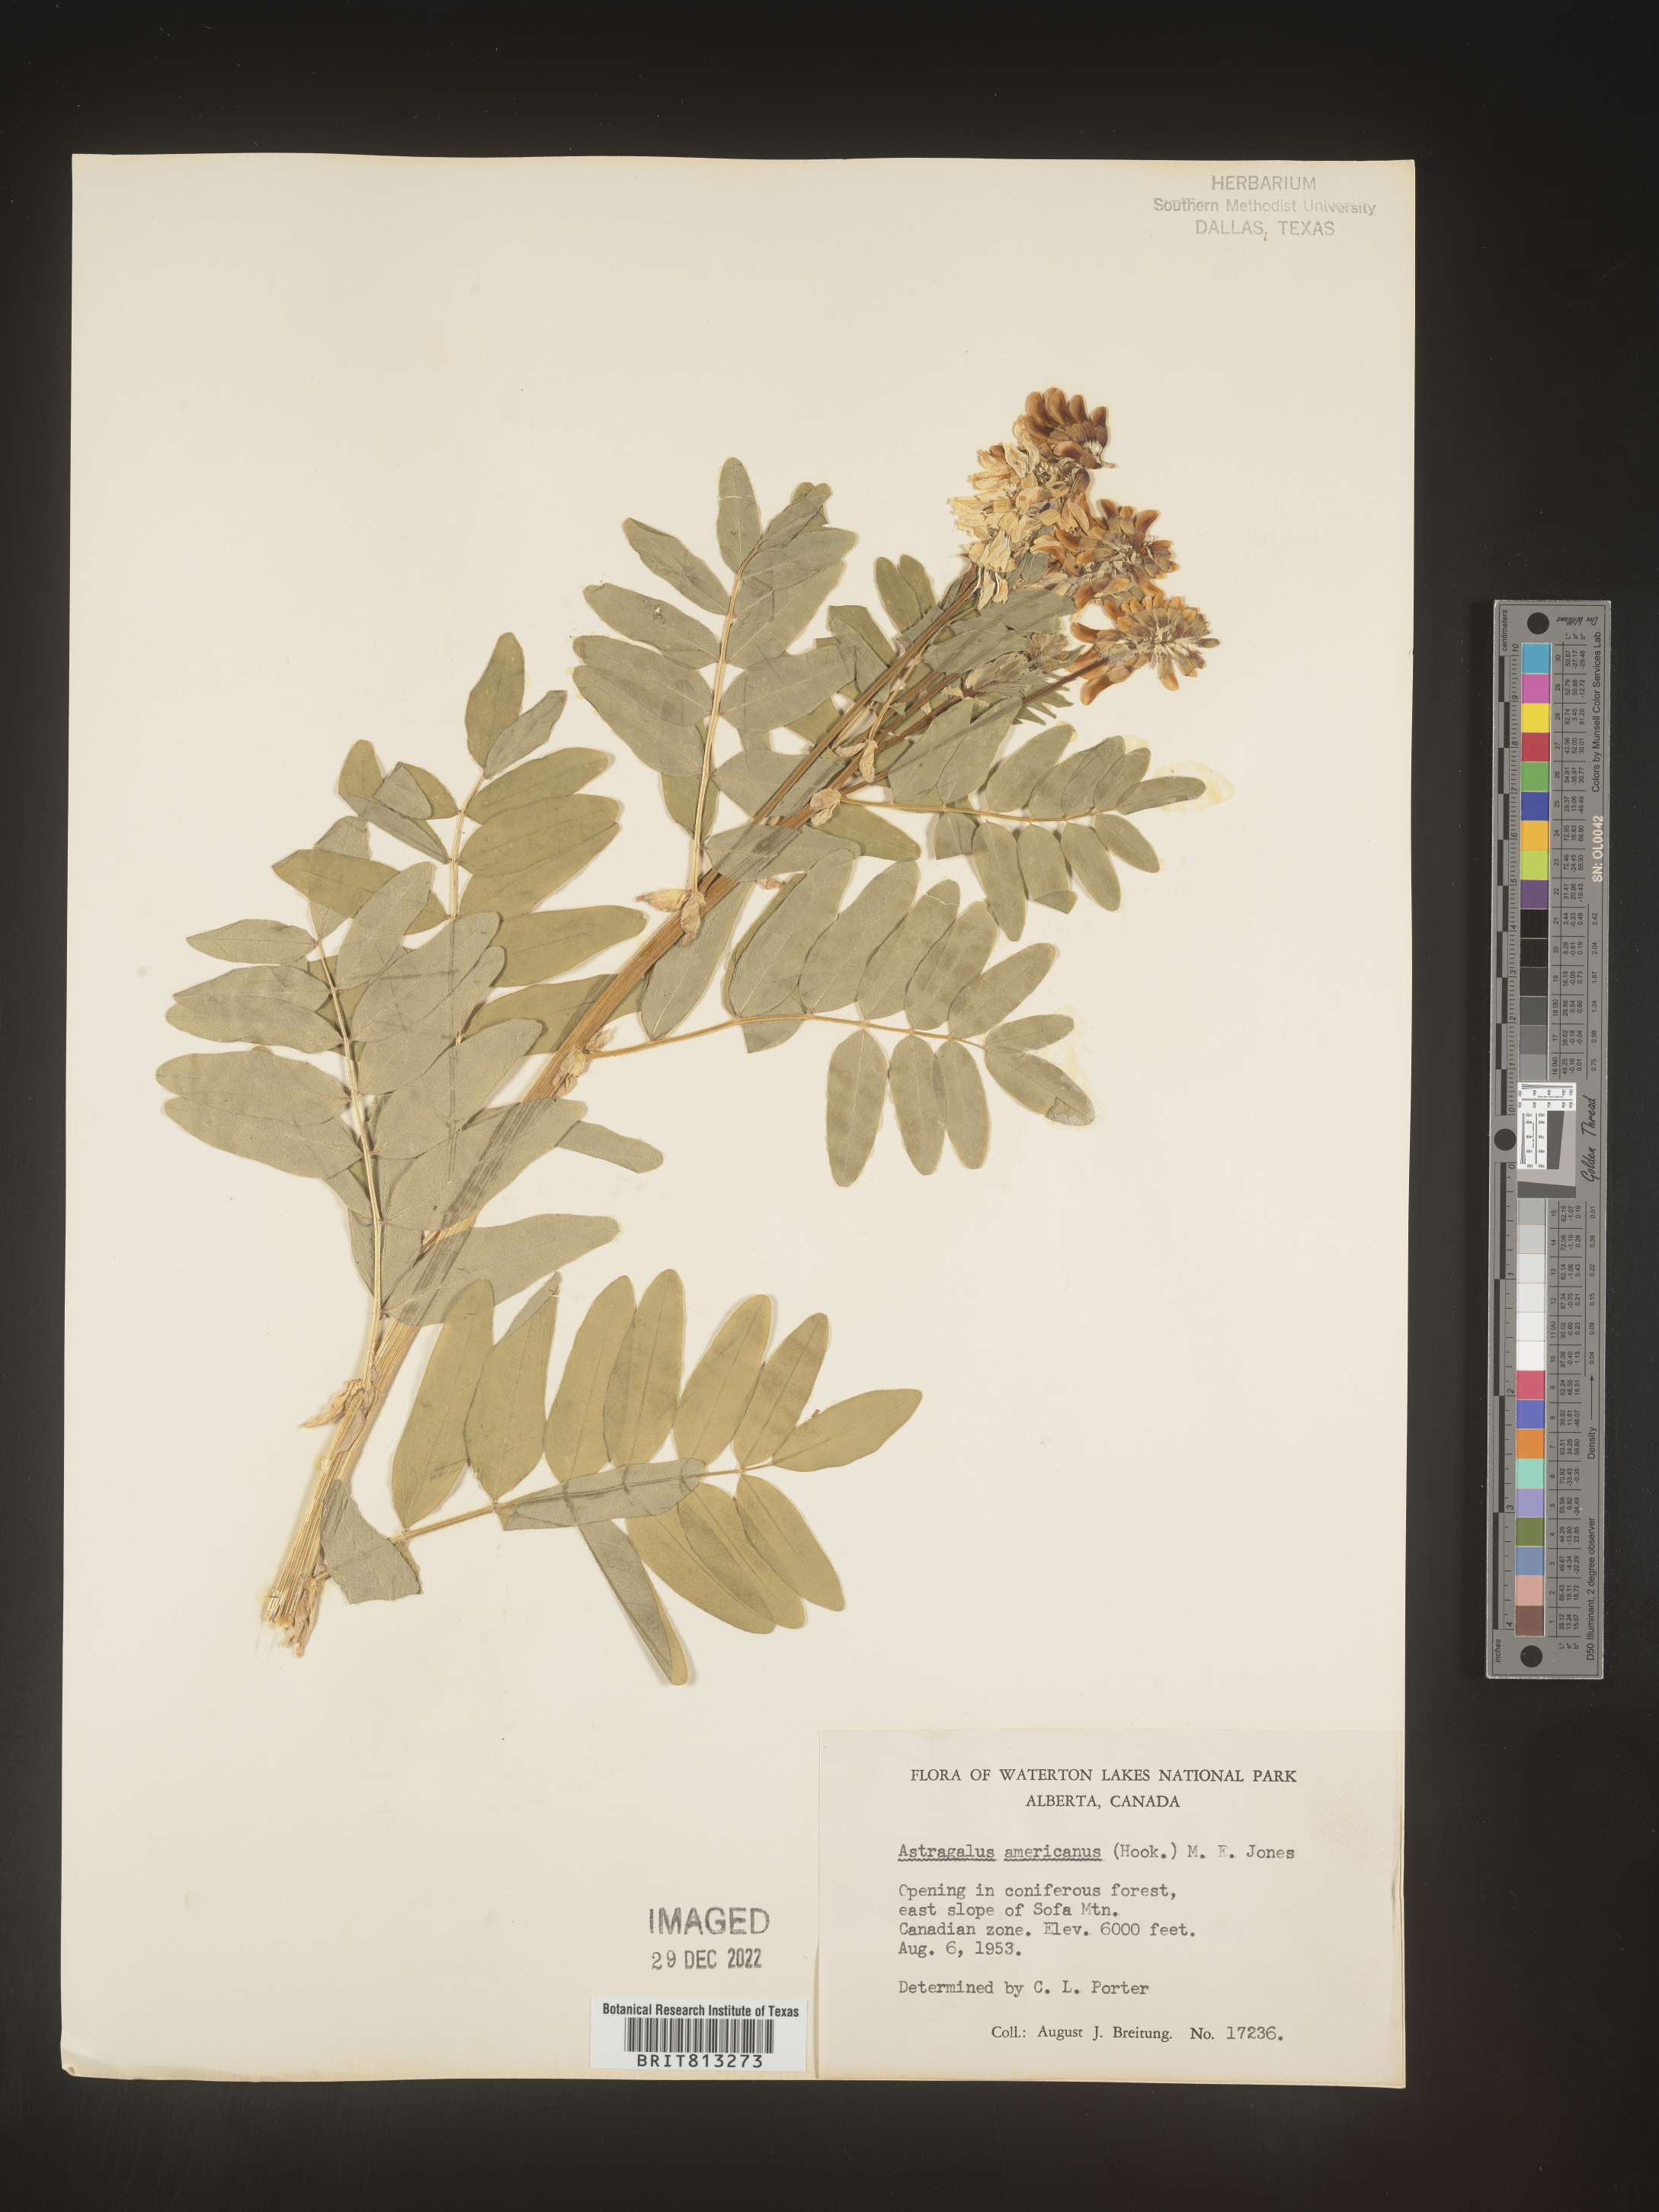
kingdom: Plantae
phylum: Tracheophyta
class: Magnoliopsida
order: Fabales
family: Fabaceae
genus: Astragalus
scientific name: Astragalus
